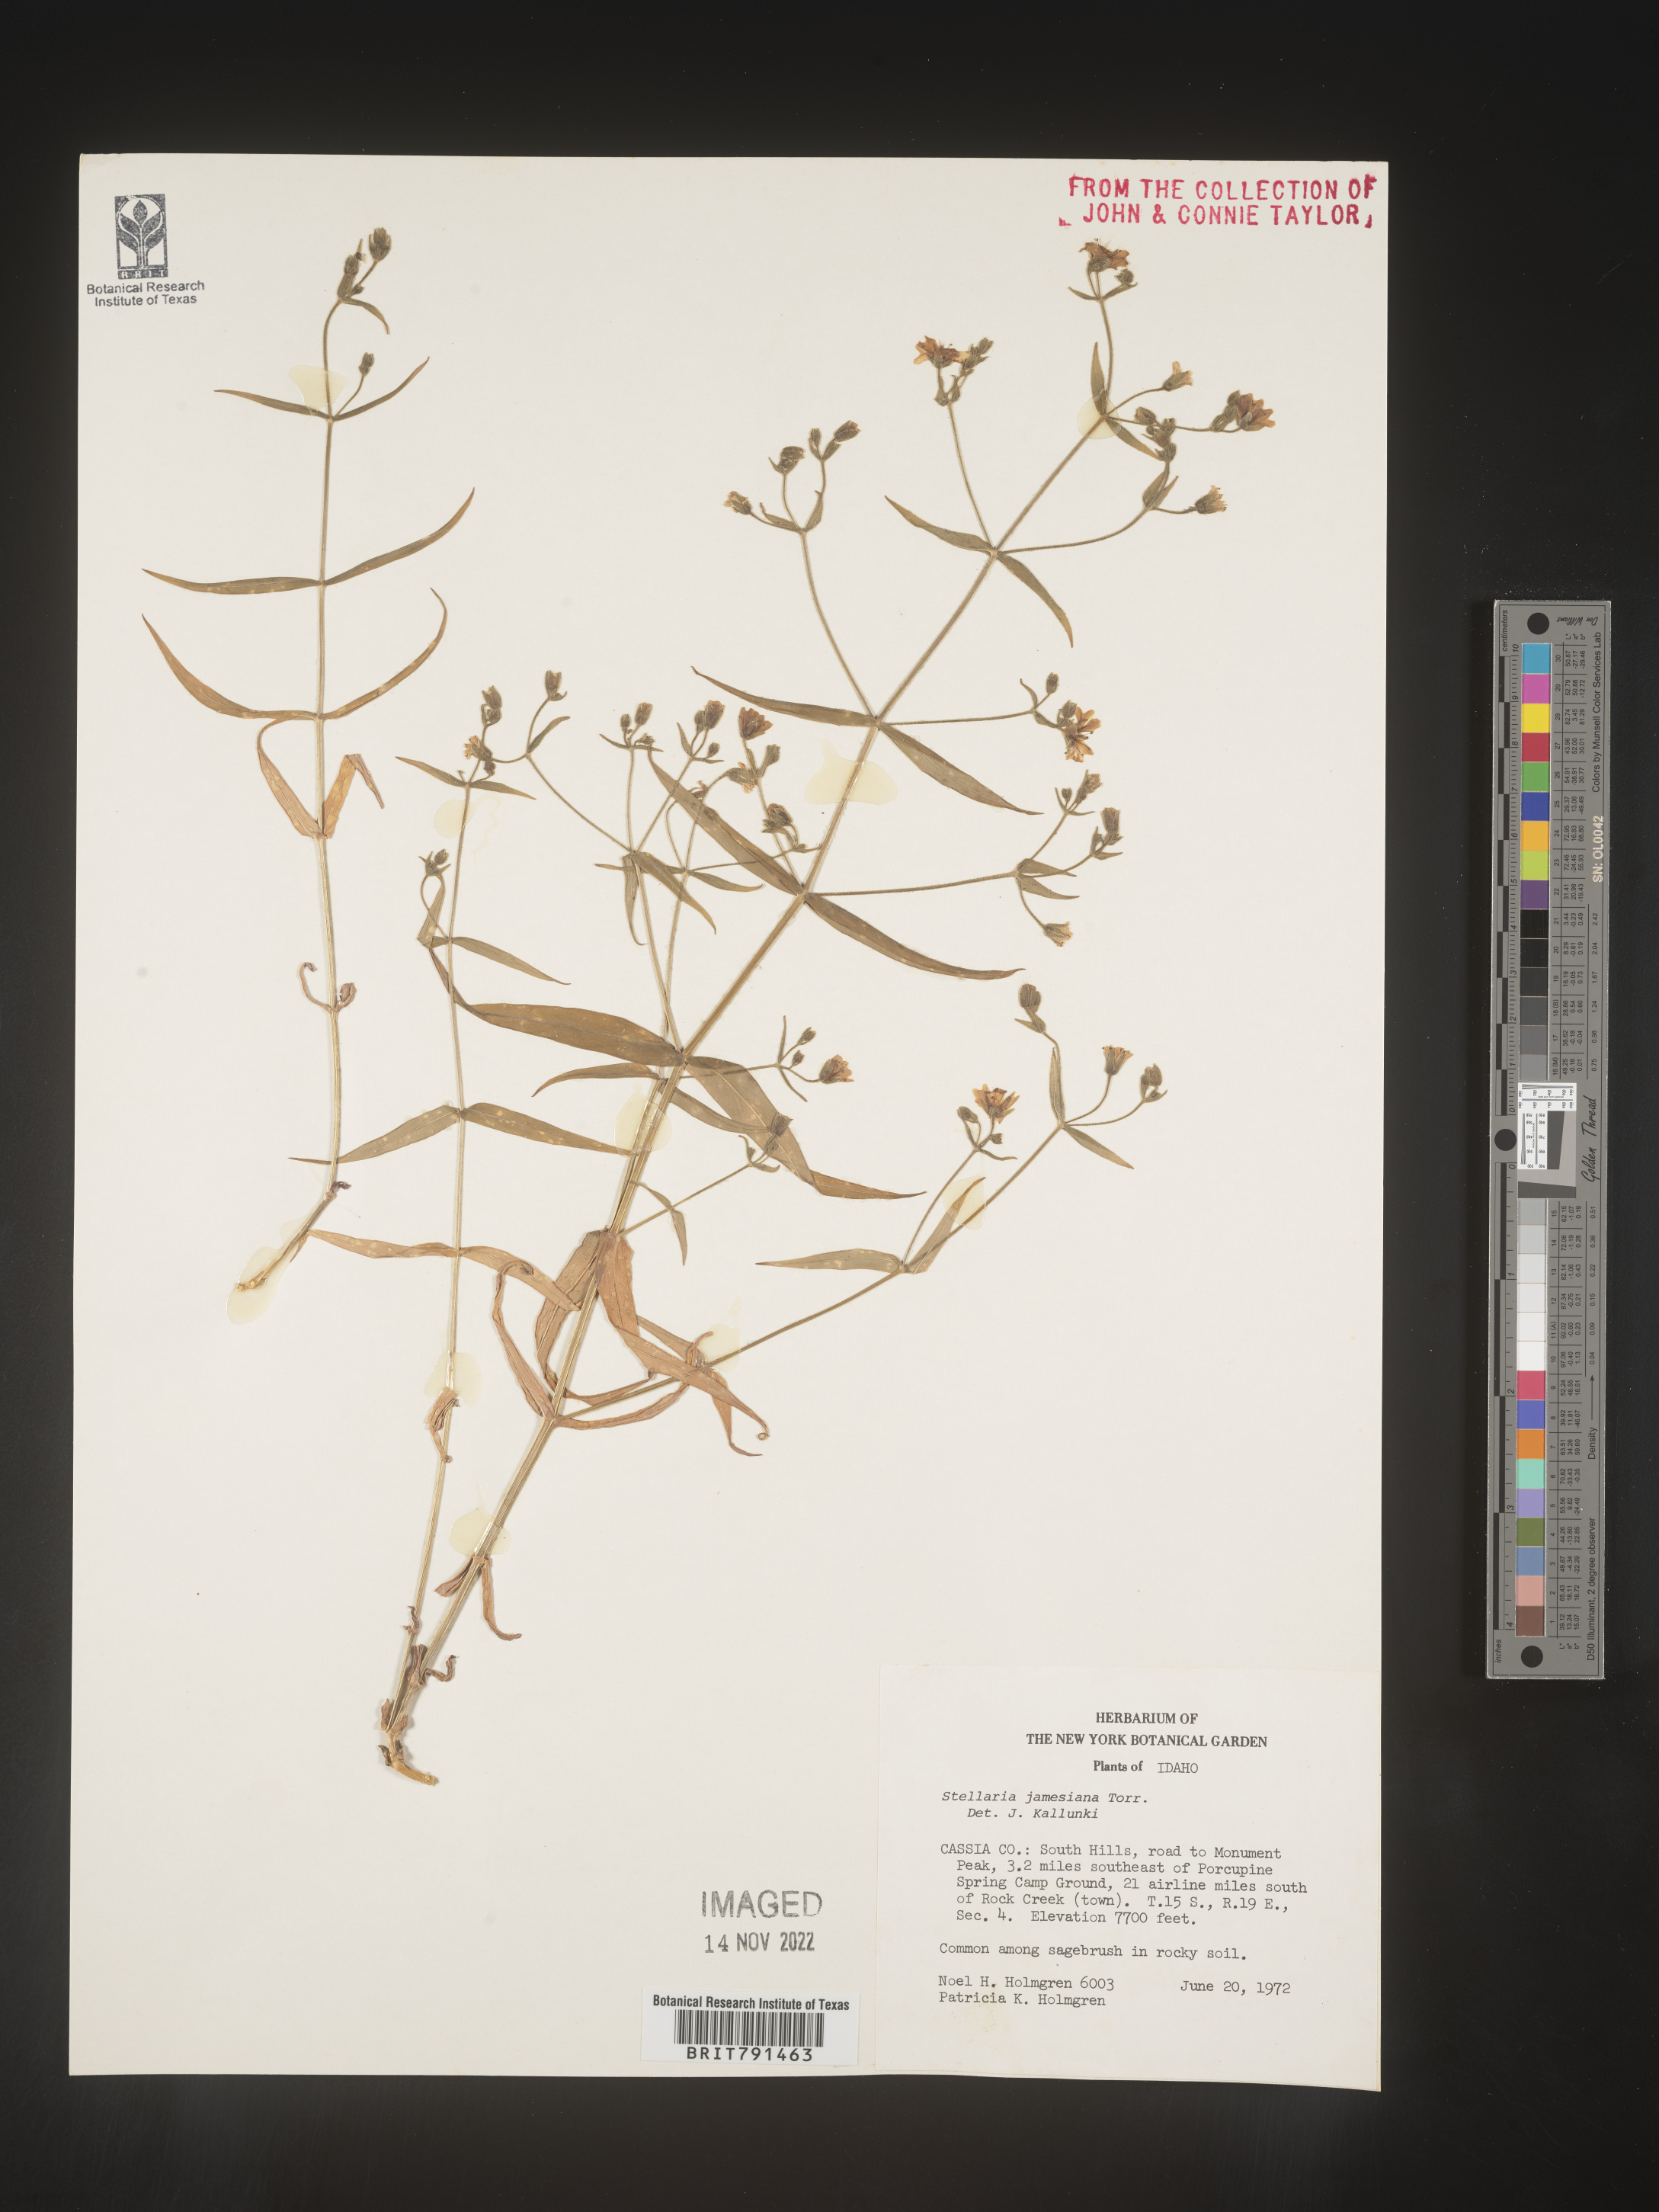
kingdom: Plantae
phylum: Tracheophyta
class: Magnoliopsida
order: Caryophyllales
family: Caryophyllaceae
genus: Pseudostellaria
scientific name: Pseudostellaria
